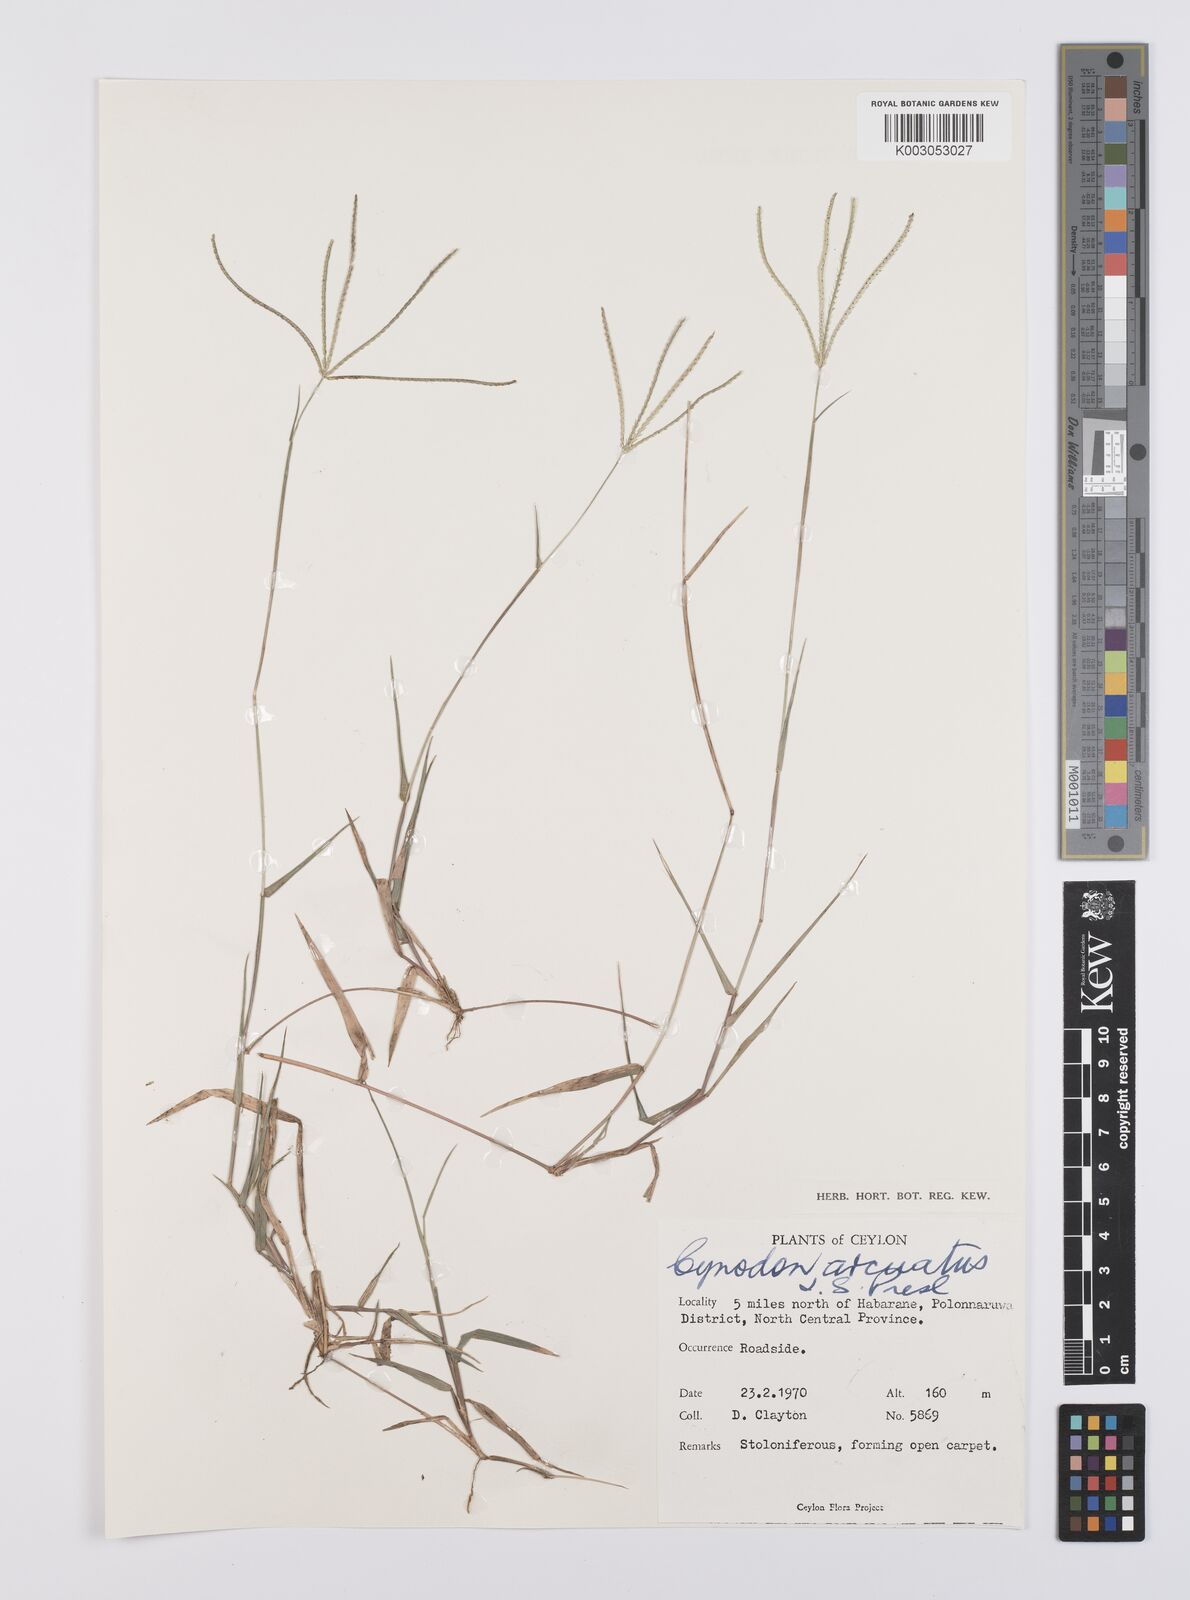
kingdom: Plantae
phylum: Tracheophyta
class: Liliopsida
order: Poales
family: Poaceae
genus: Cynodon
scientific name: Cynodon radiatus
